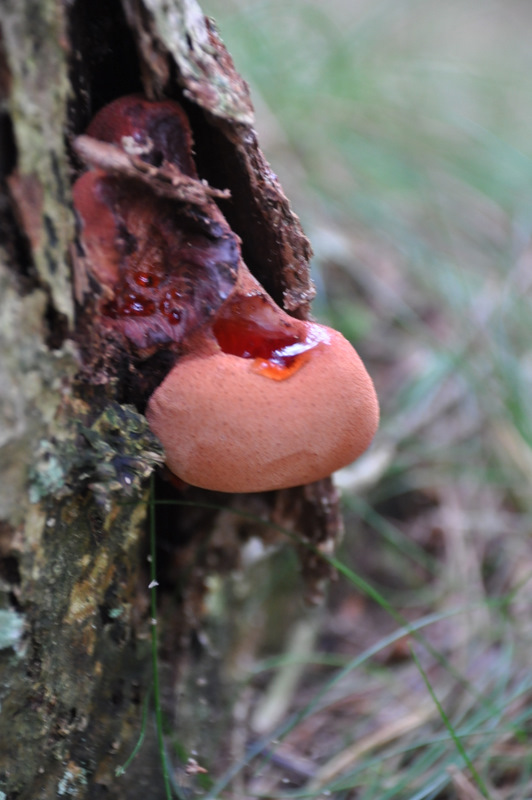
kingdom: Fungi
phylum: Basidiomycota
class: Agaricomycetes
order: Agaricales
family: Fistulinaceae
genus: Fistulina
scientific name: Fistulina hepatica
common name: oksetunge
